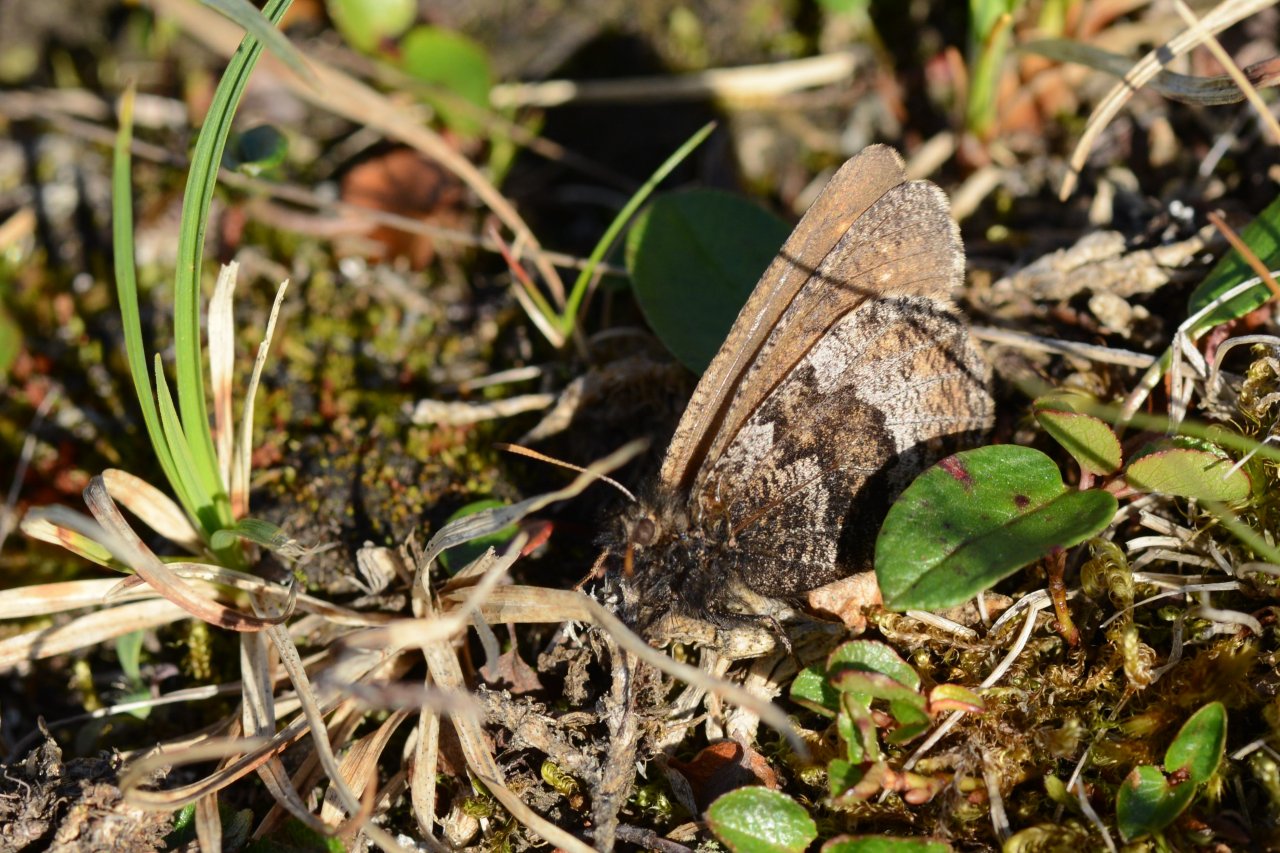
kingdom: Animalia
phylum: Arthropoda
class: Insecta
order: Lepidoptera
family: Nymphalidae
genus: Oeneis
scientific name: Oeneis bore
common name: White-veined Arctic
